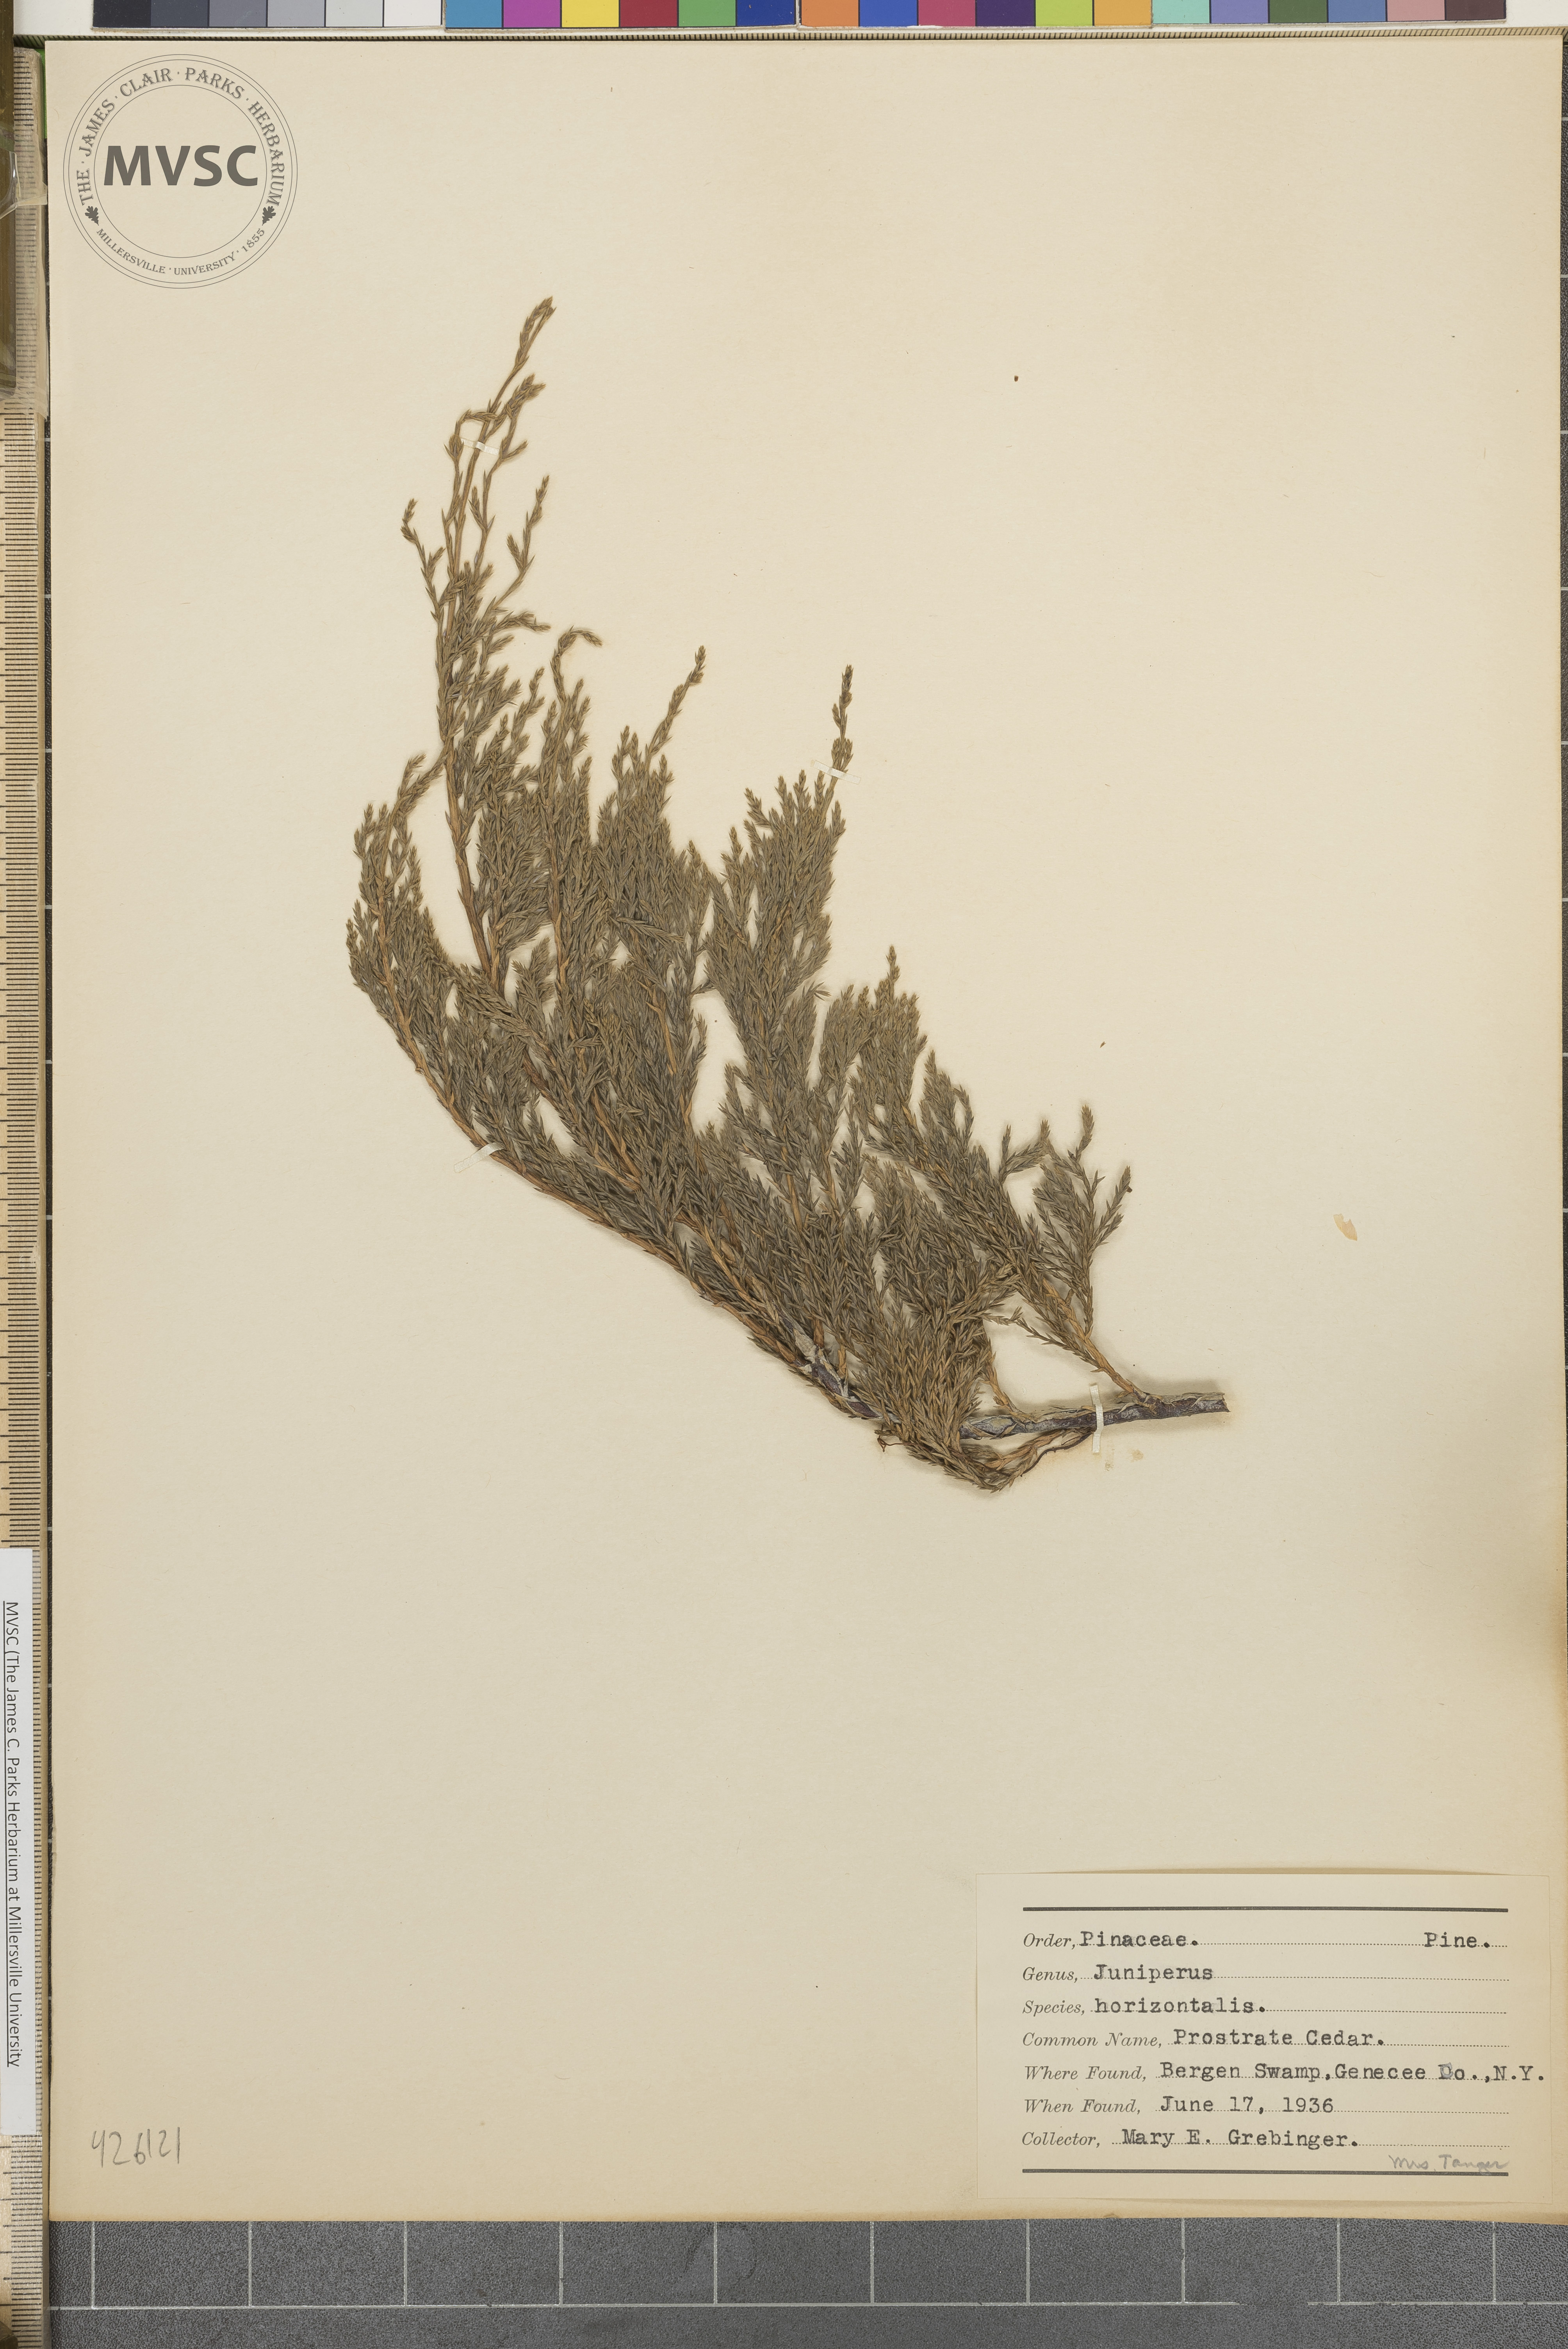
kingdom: Plantae
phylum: Tracheophyta
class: Pinopsida
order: Pinales
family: Cupressaceae
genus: Juniperus
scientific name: Juniperus horizontalis
